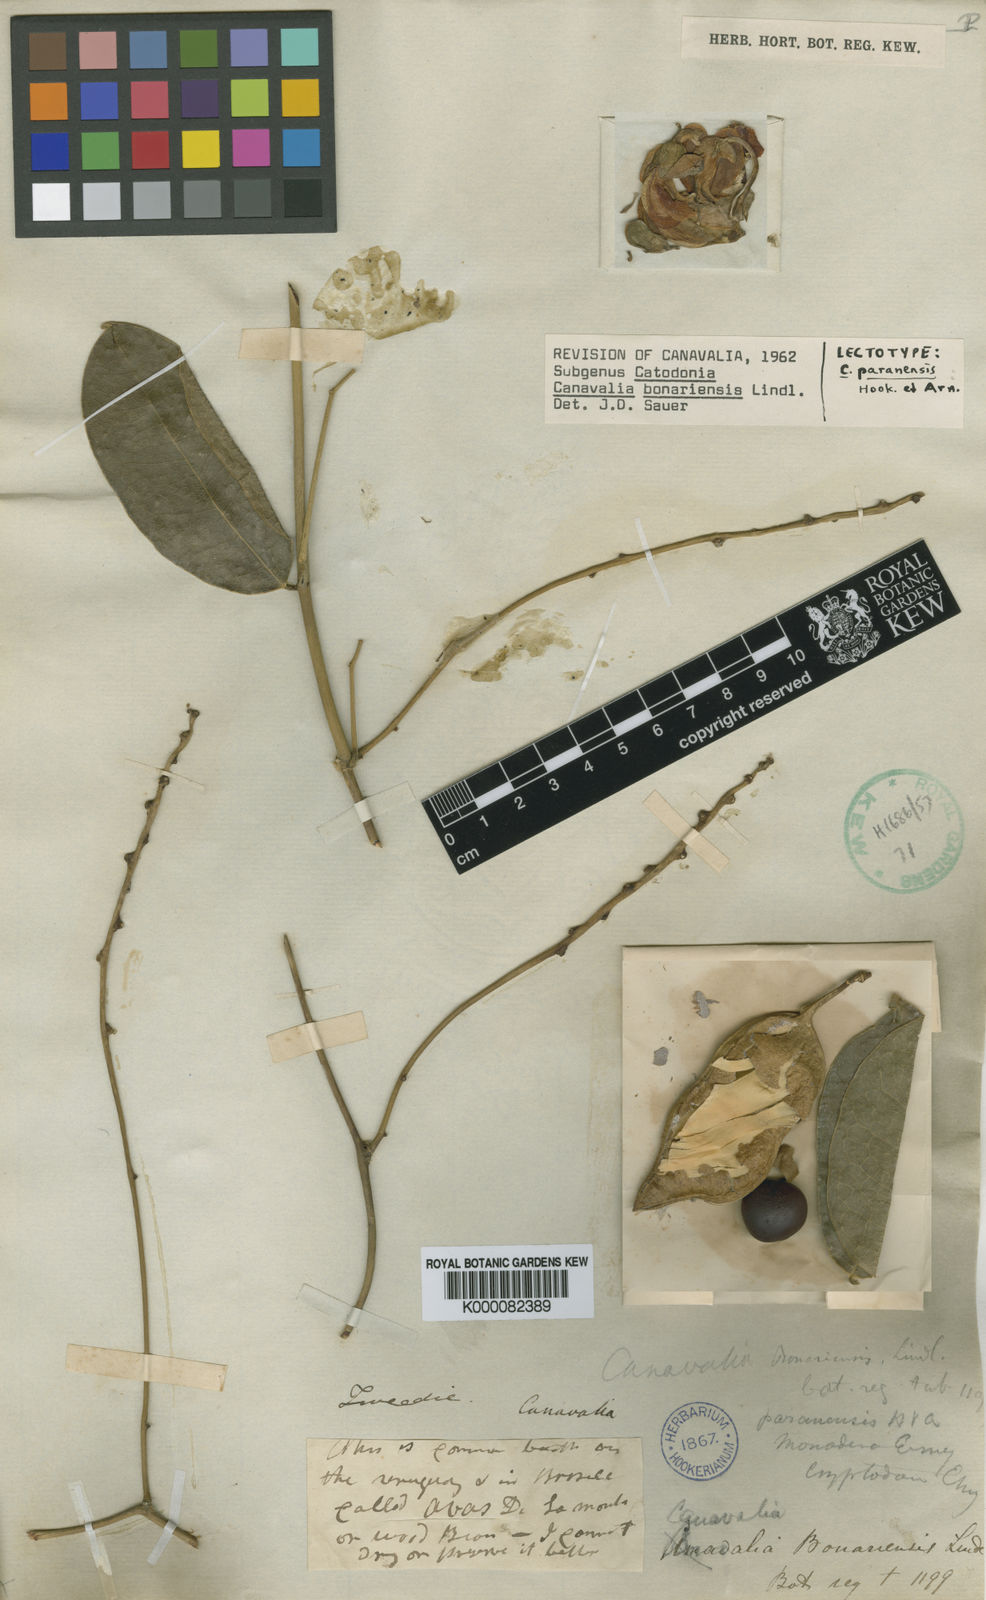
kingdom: Plantae
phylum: Tracheophyta
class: Magnoliopsida
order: Fabales
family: Fabaceae
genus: Canavalia
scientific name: Canavalia bonariensis
